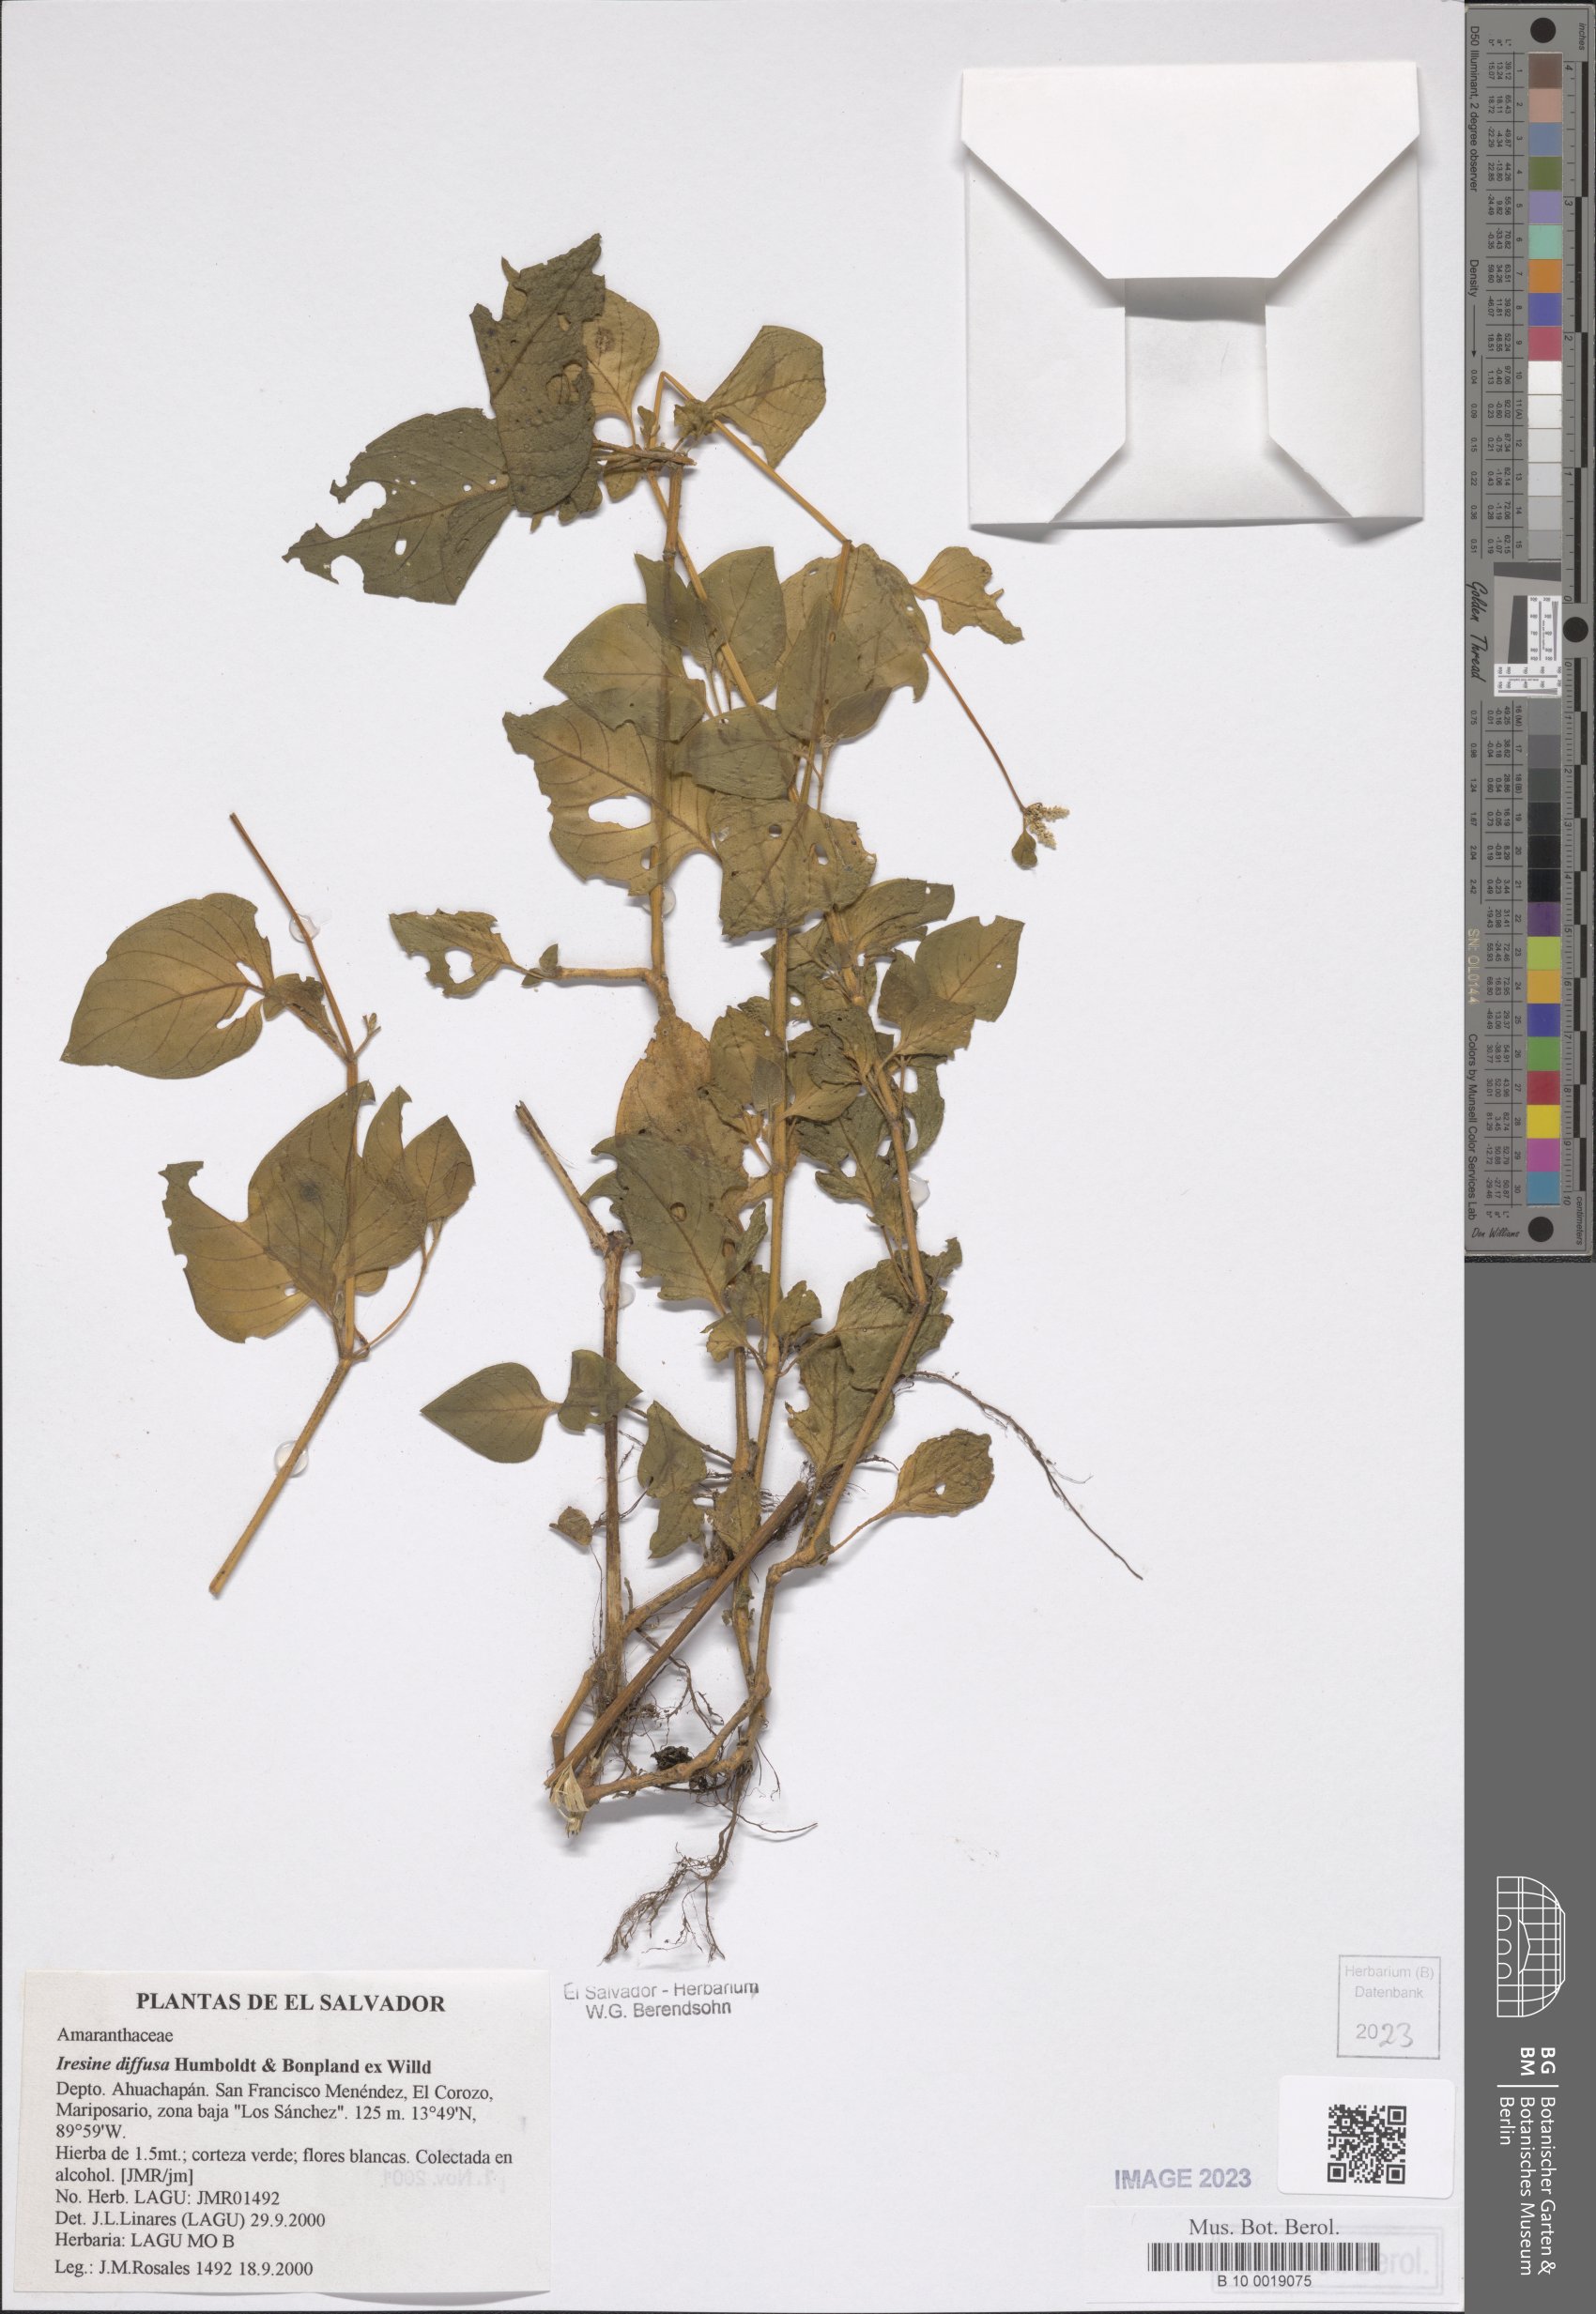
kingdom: Plantae
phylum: Tracheophyta
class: Magnoliopsida
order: Caryophyllales
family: Amaranthaceae
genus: Iresine
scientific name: Iresine diffusa
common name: Juba's-bush
